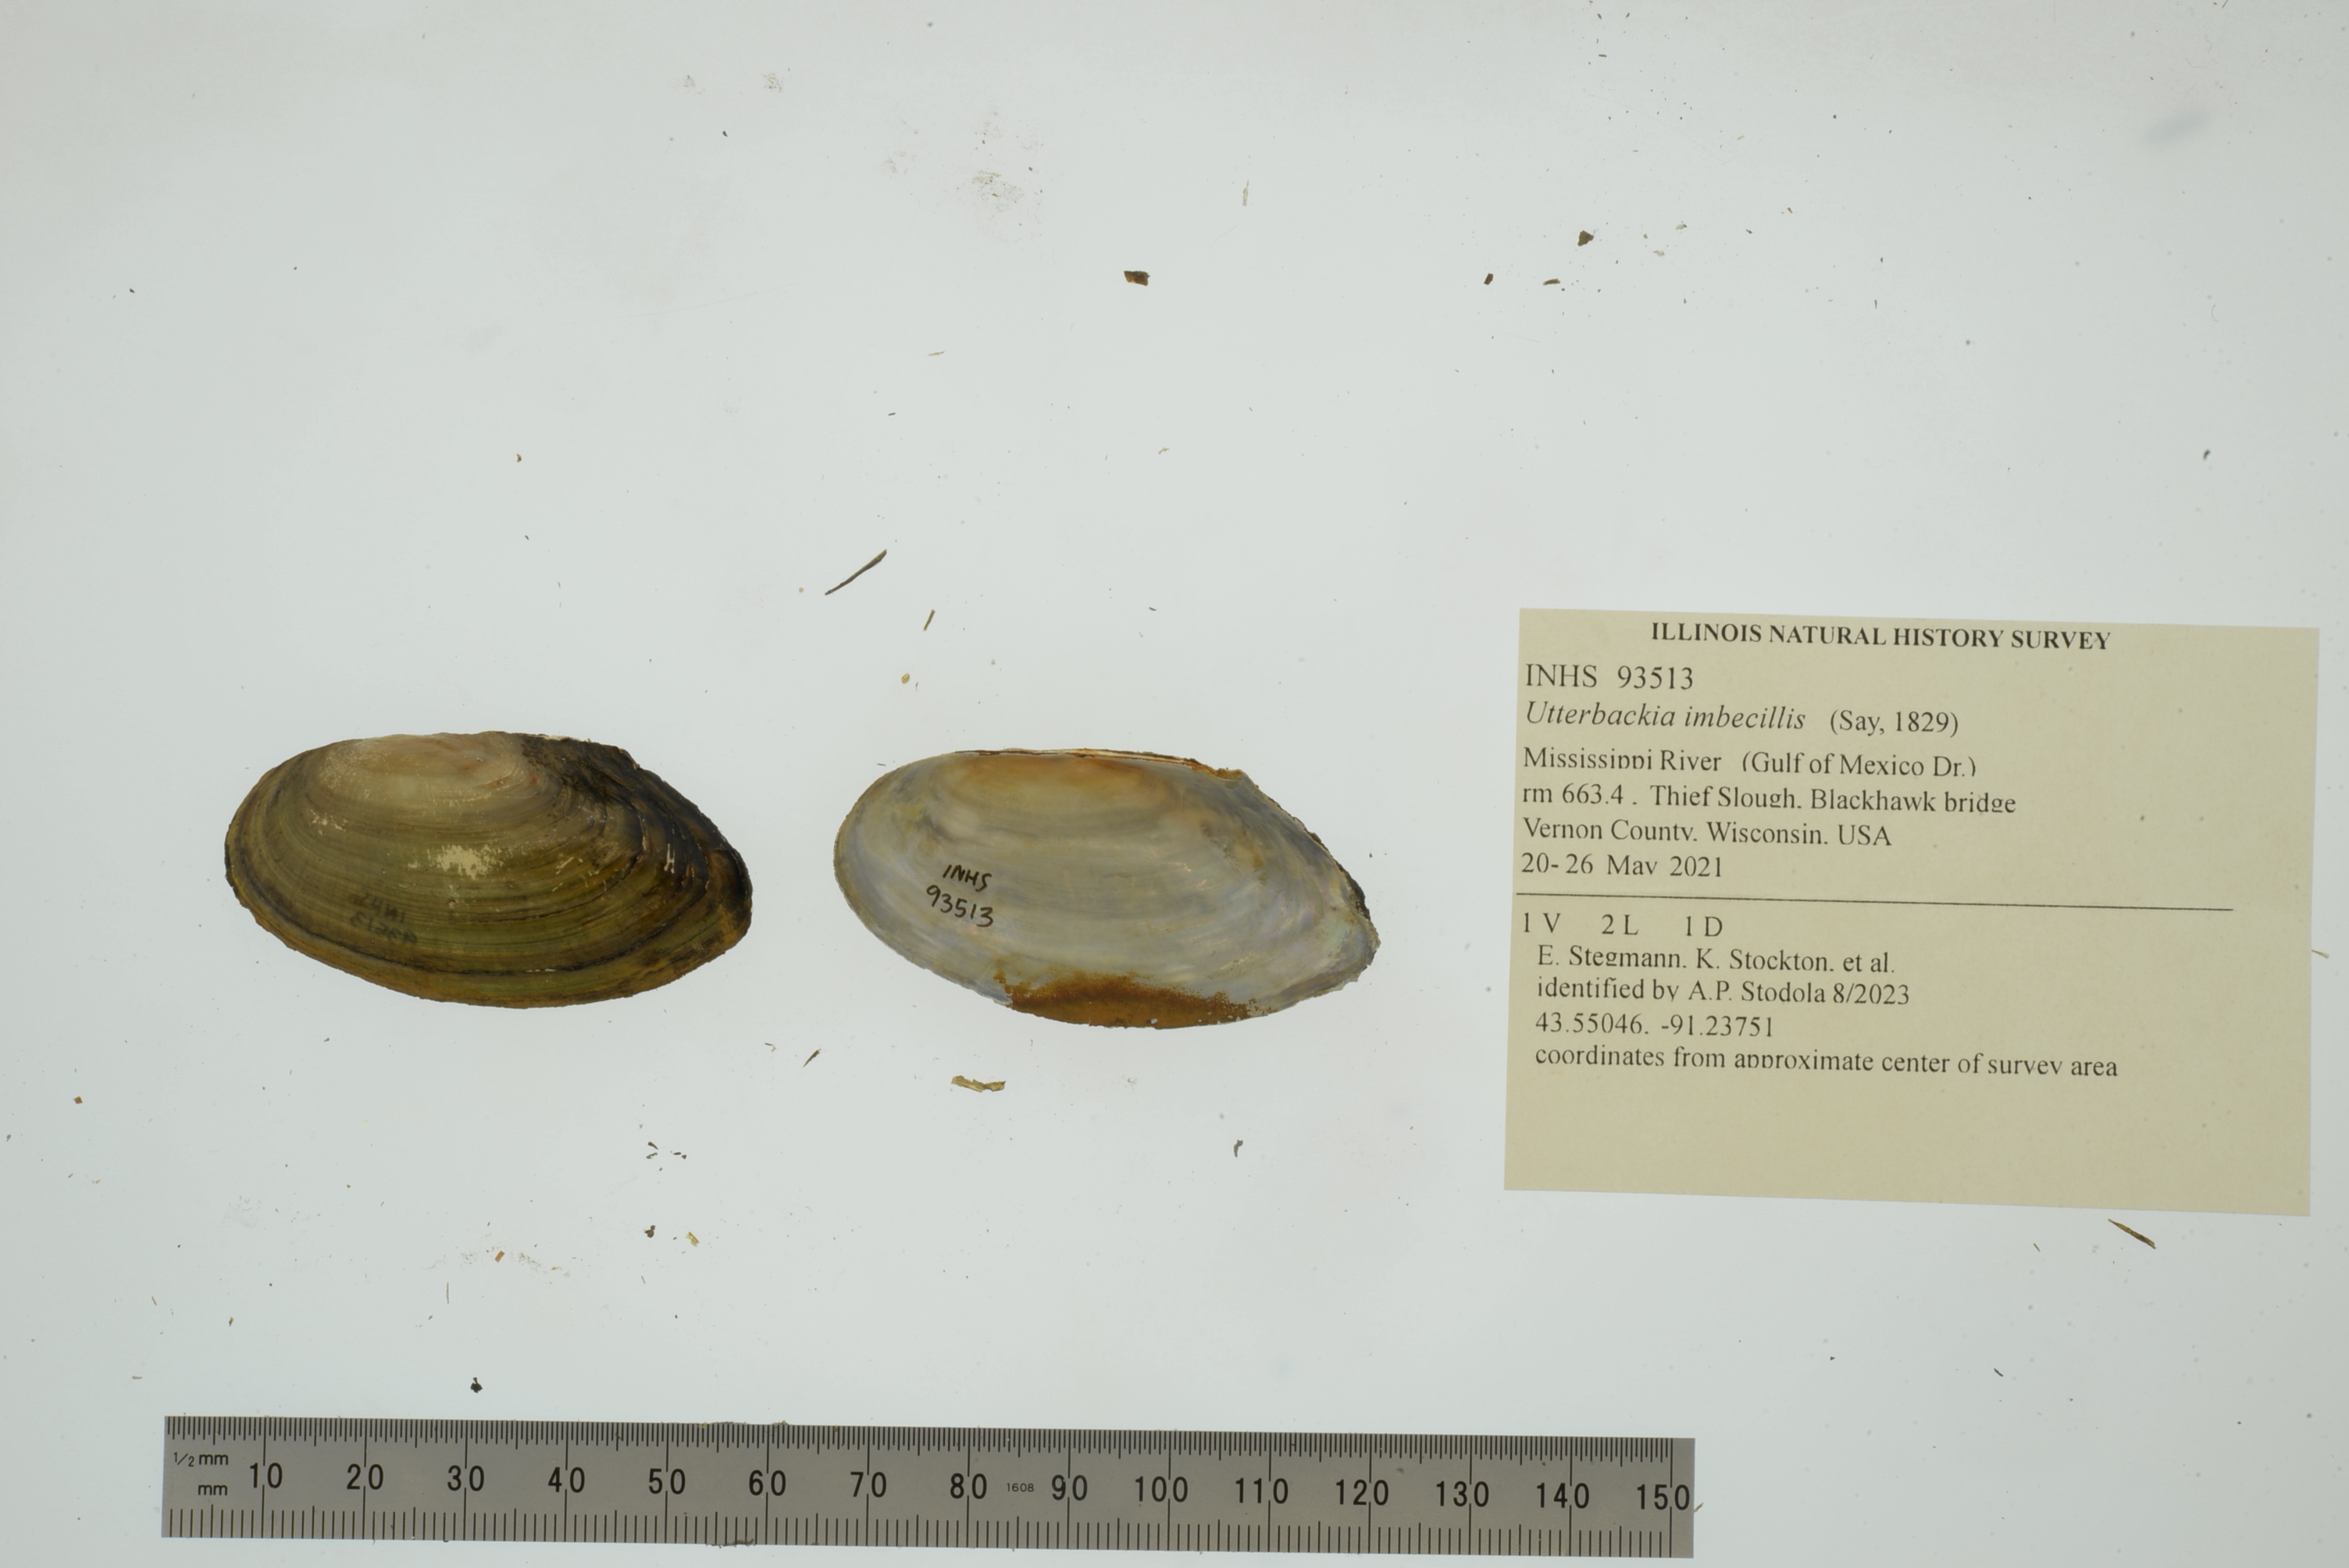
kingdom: Animalia
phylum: Mollusca
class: Bivalvia
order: Unionida
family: Unionidae
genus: Utterbackia
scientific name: Utterbackia imbecillis
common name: Paper pondshell
